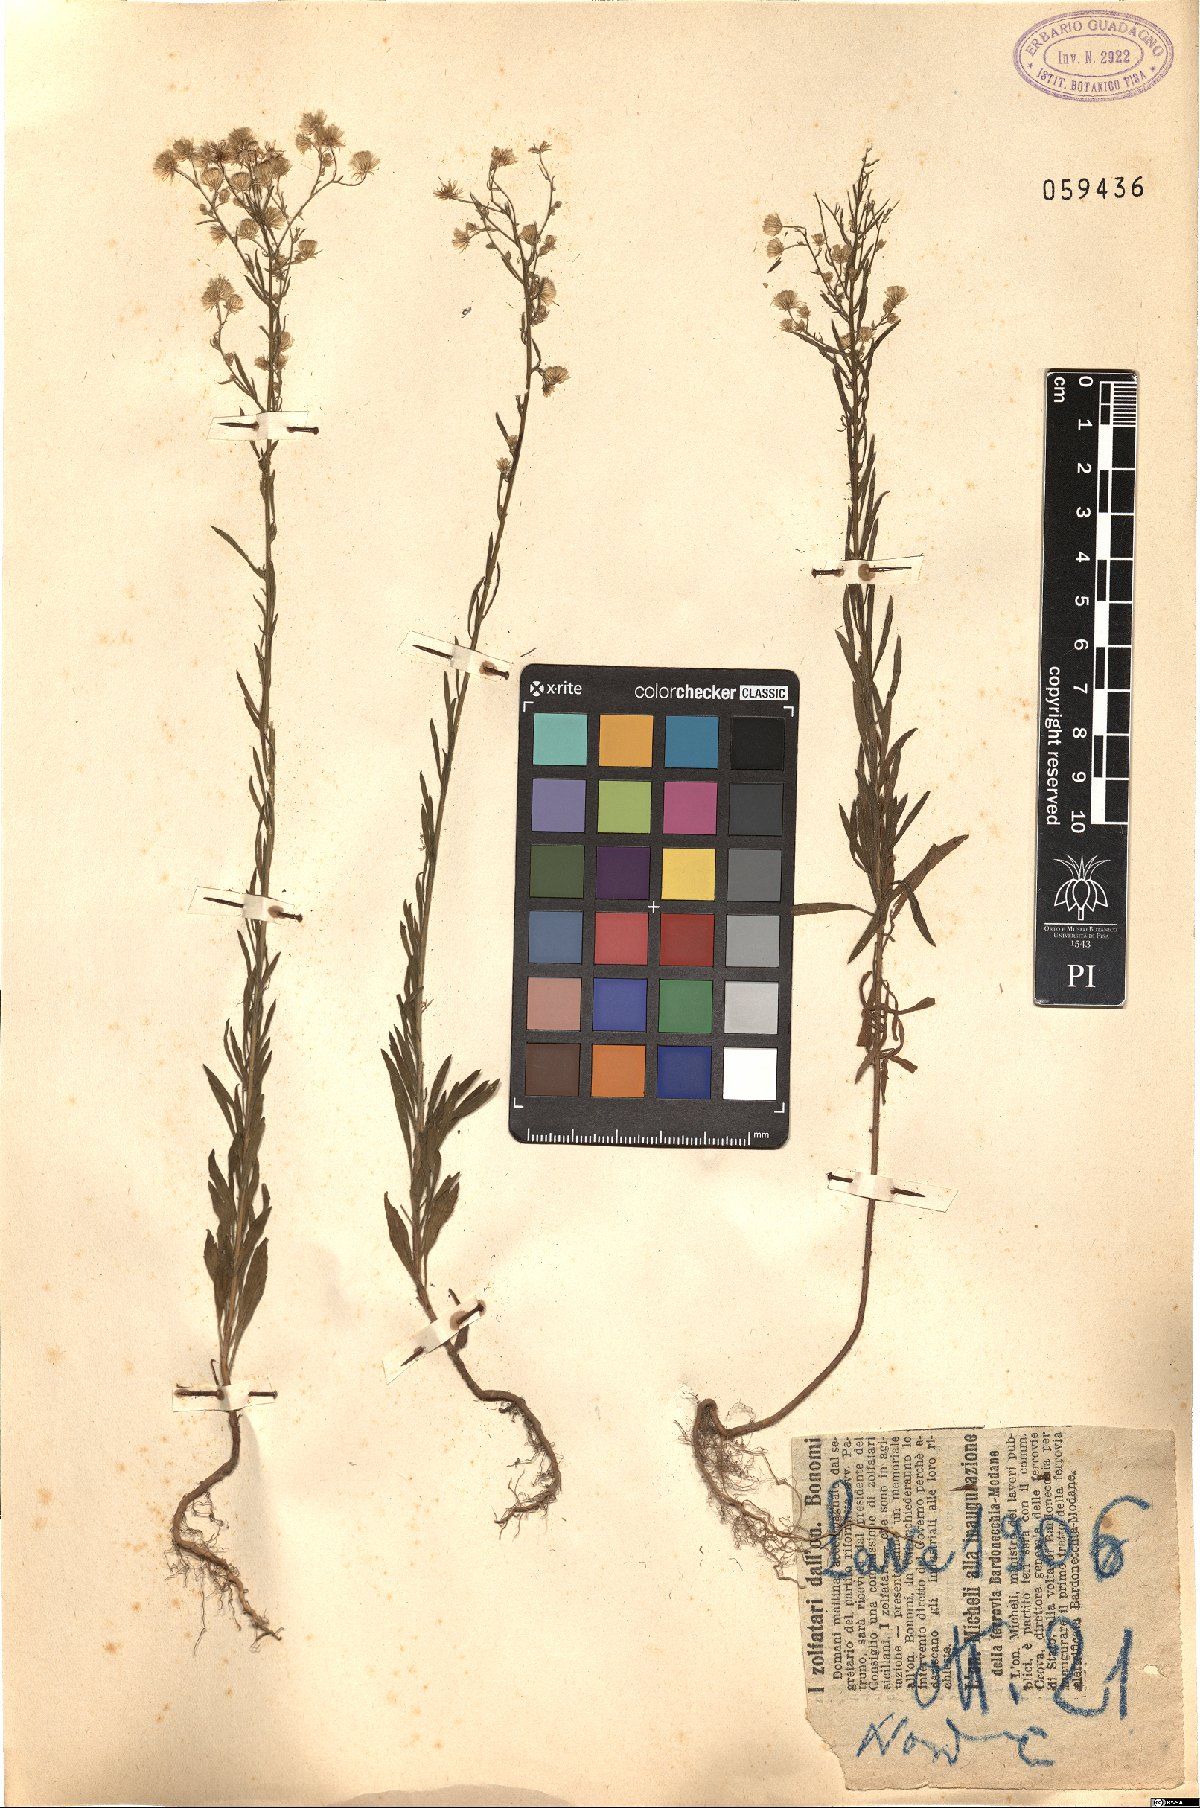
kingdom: Plantae
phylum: Tracheophyta
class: Magnoliopsida
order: Asterales
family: Asteraceae
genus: Erigeron
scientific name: Erigeron
